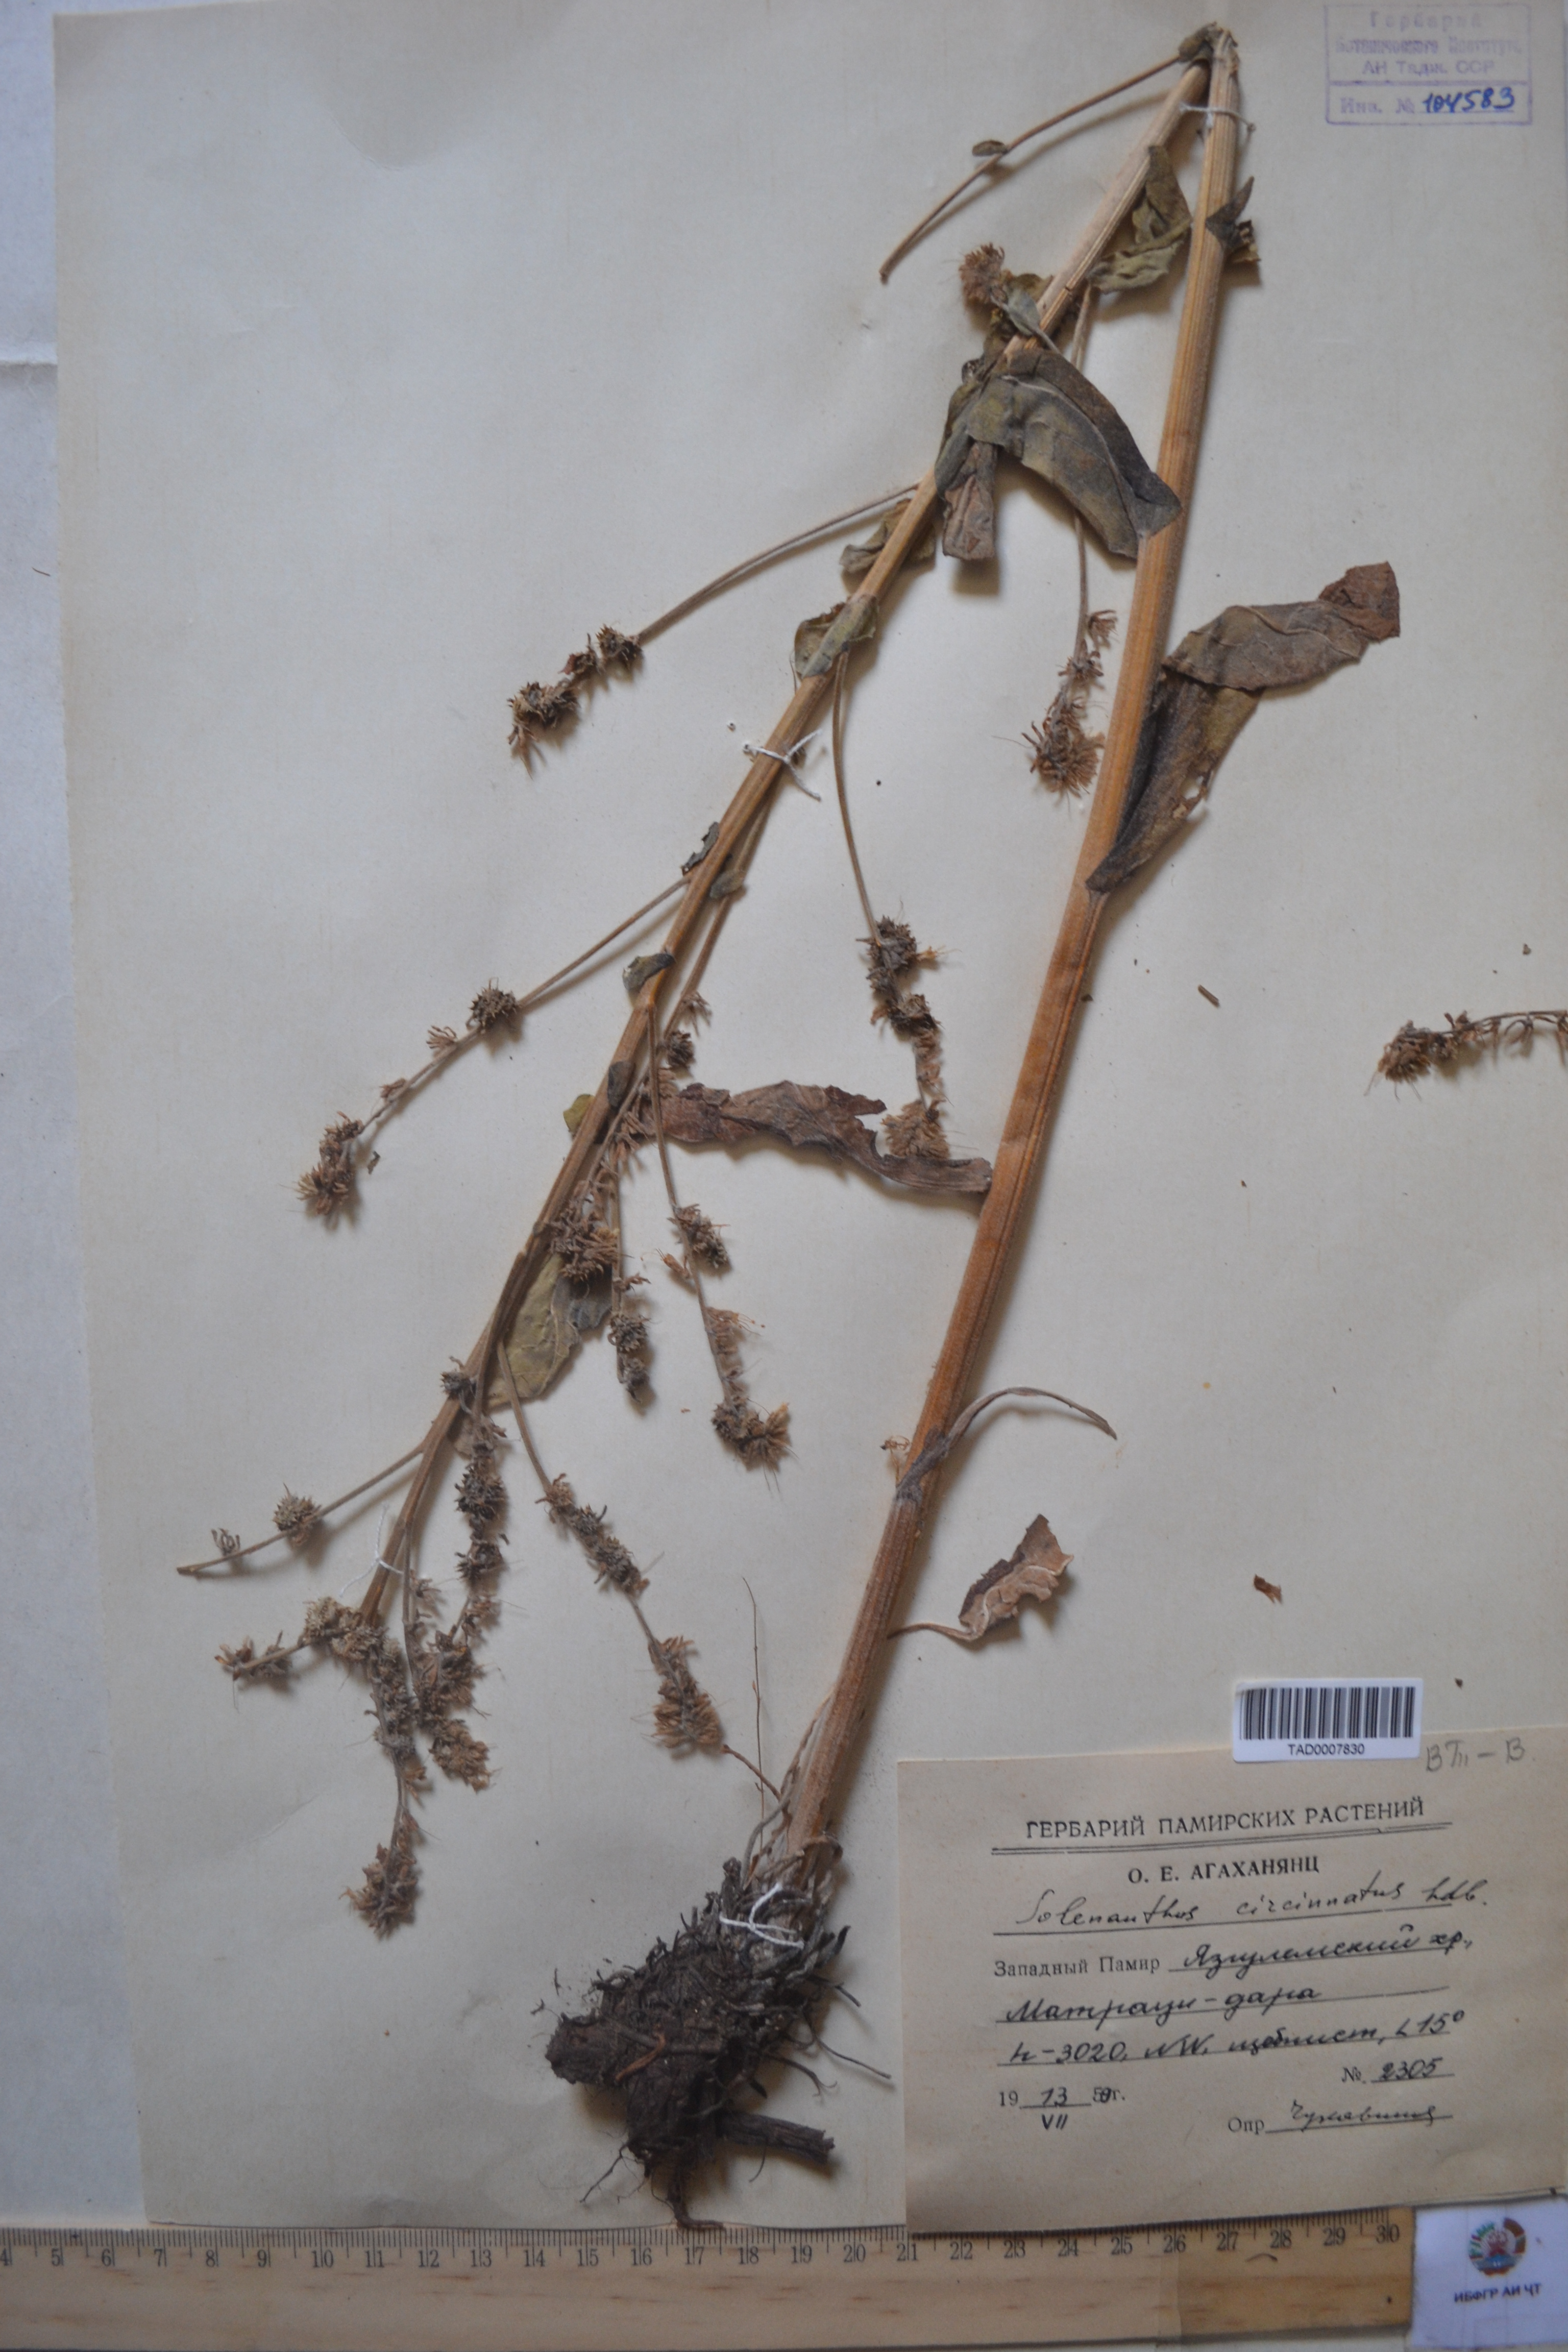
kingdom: Plantae
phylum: Tracheophyta
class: Magnoliopsida
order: Boraginales
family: Boraginaceae
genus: Solenanthus
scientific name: Solenanthus circinnatus
